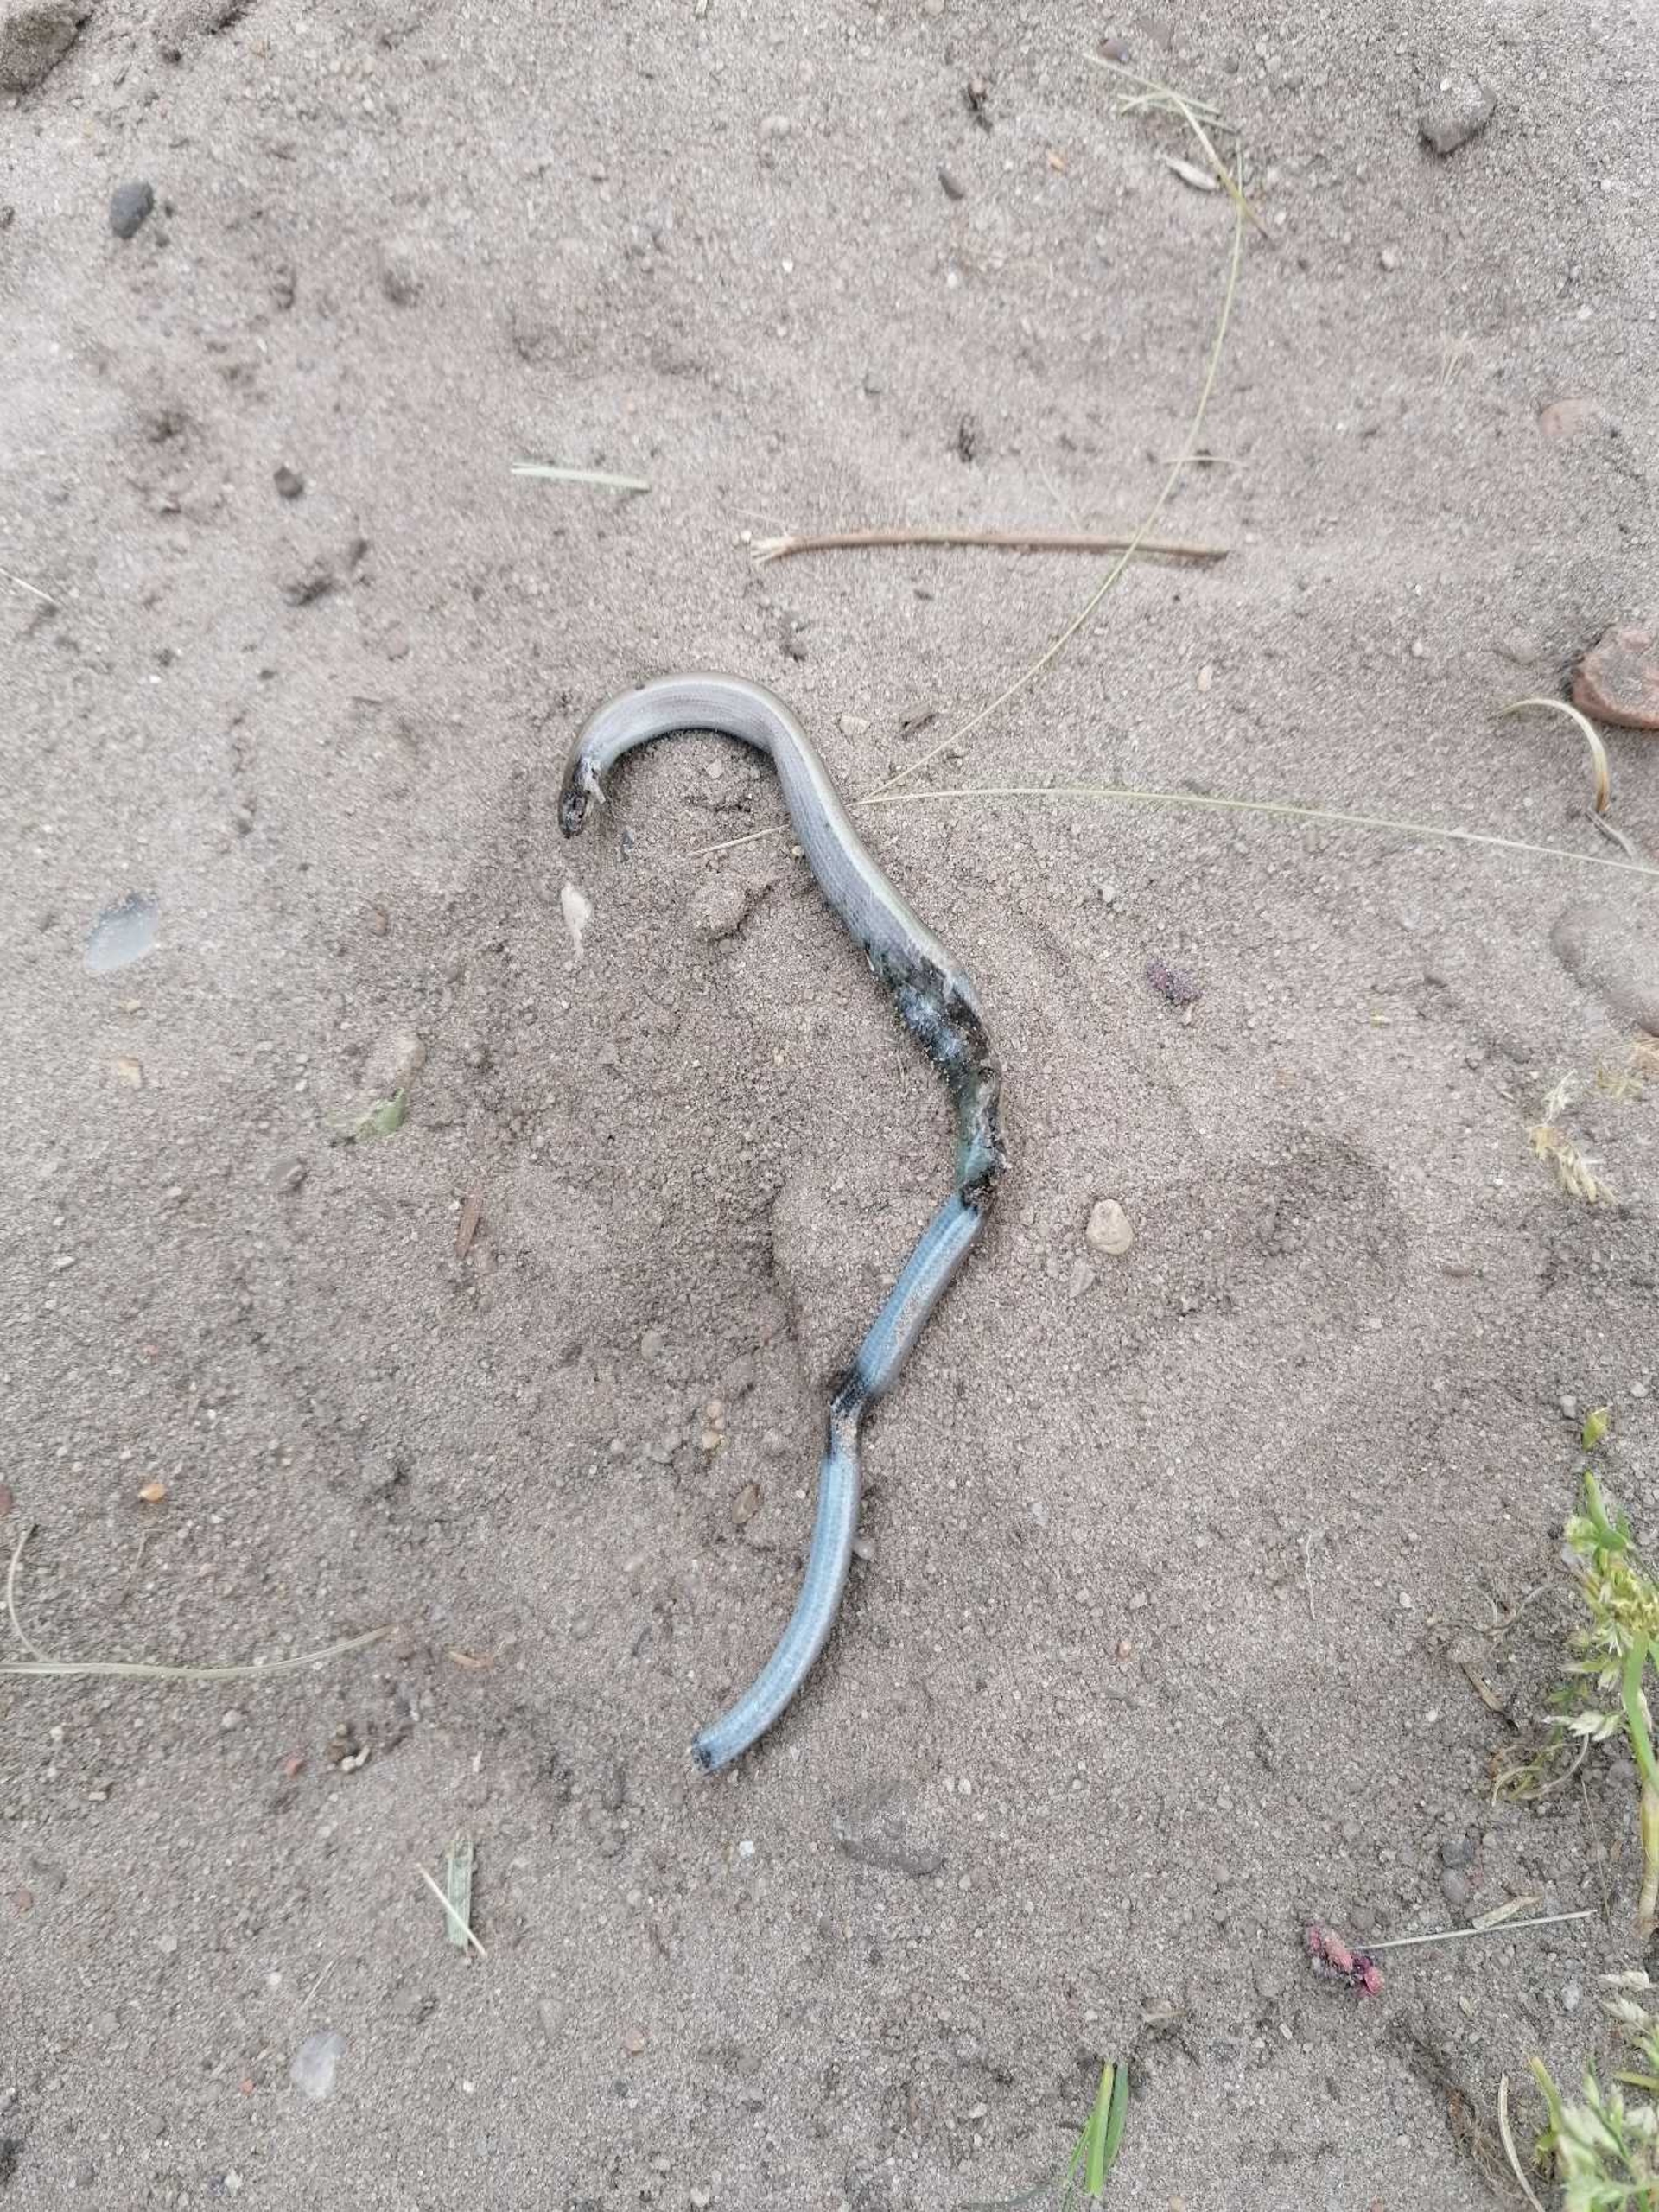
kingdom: Animalia
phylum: Chordata
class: Squamata
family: Anguidae
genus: Anguis
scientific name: Anguis fragilis
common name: Stålorm
